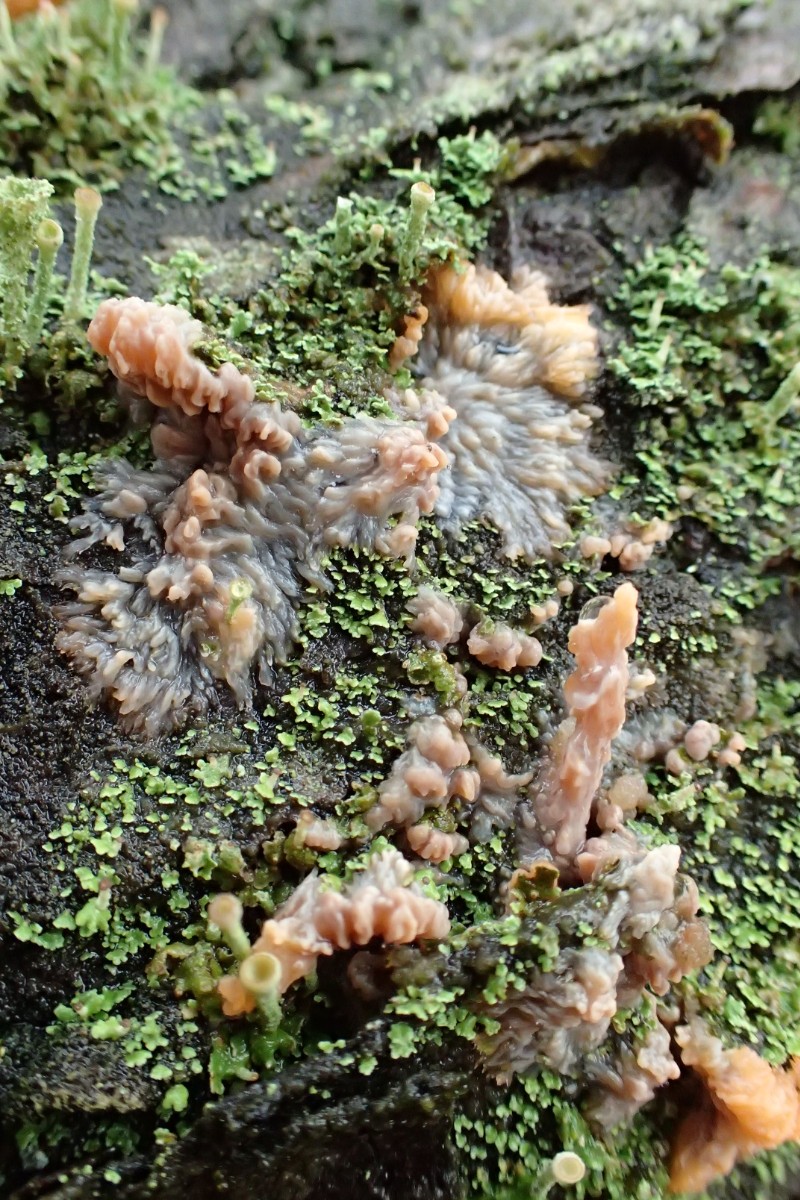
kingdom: Fungi
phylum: Basidiomycota
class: Agaricomycetes
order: Polyporales
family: Meruliaceae
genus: Phlebia
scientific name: Phlebia radiata
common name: stråle-åresvamp
